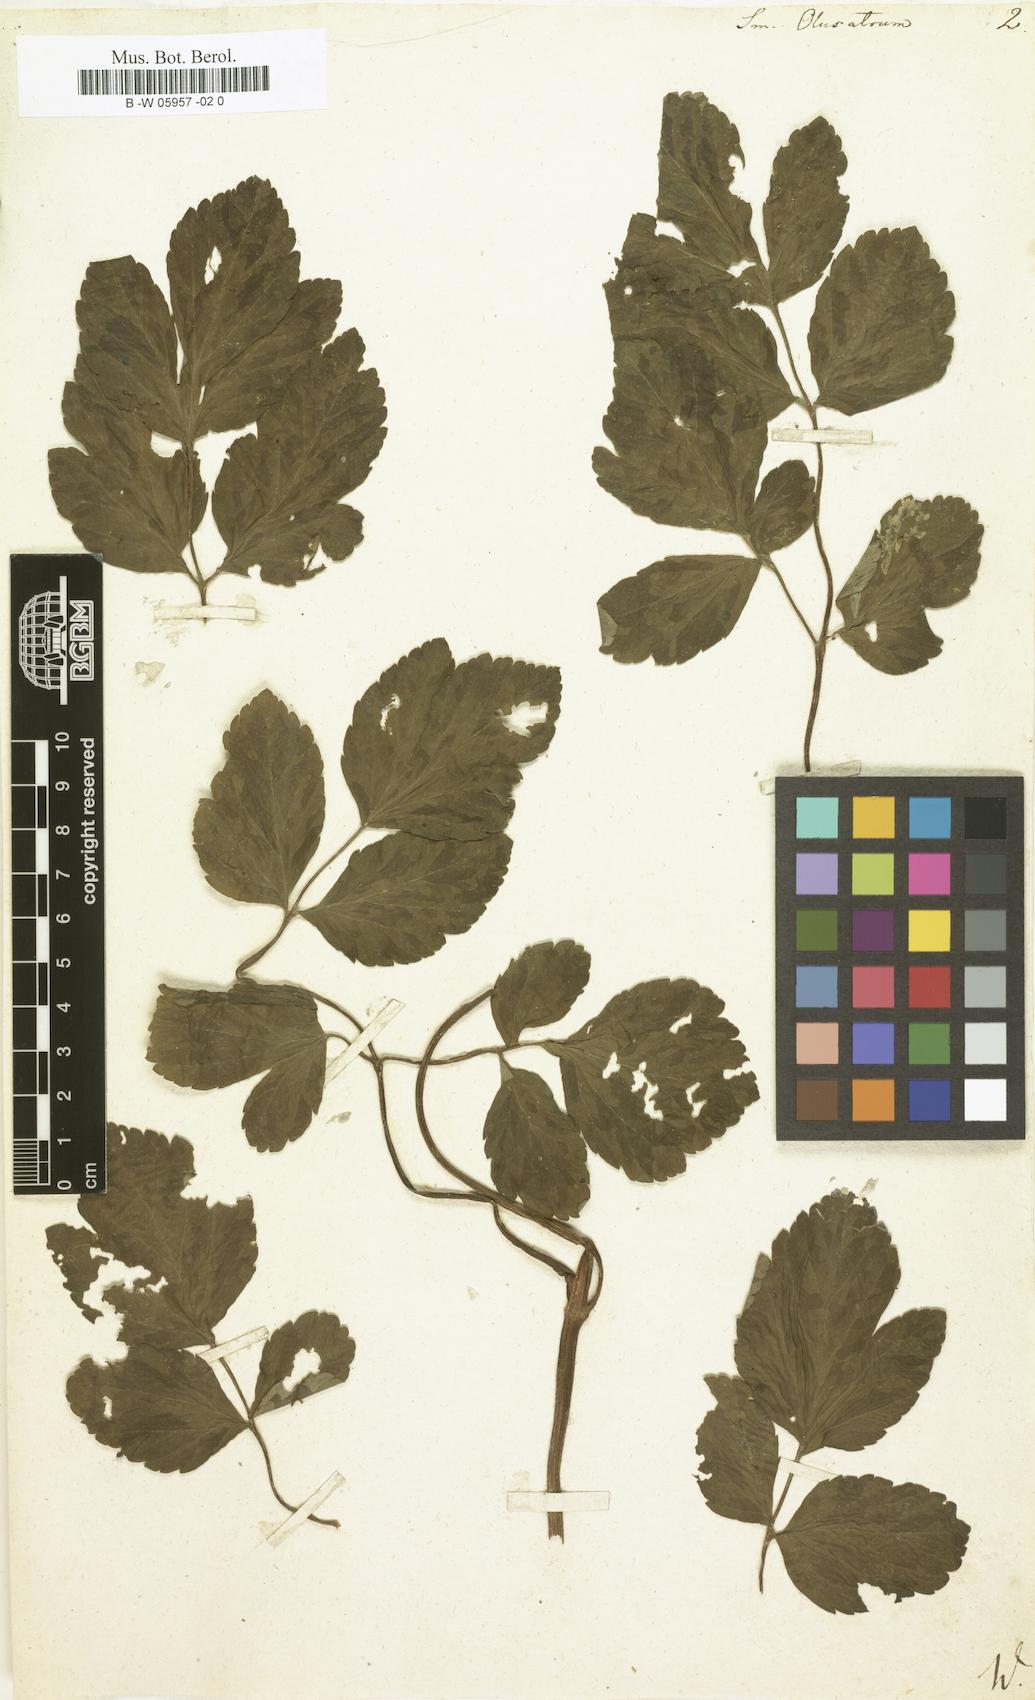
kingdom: Plantae
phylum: Tracheophyta
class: Magnoliopsida
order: Apiales
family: Apiaceae
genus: Smyrnium
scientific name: Smyrnium olusatrum
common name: Alexanders
